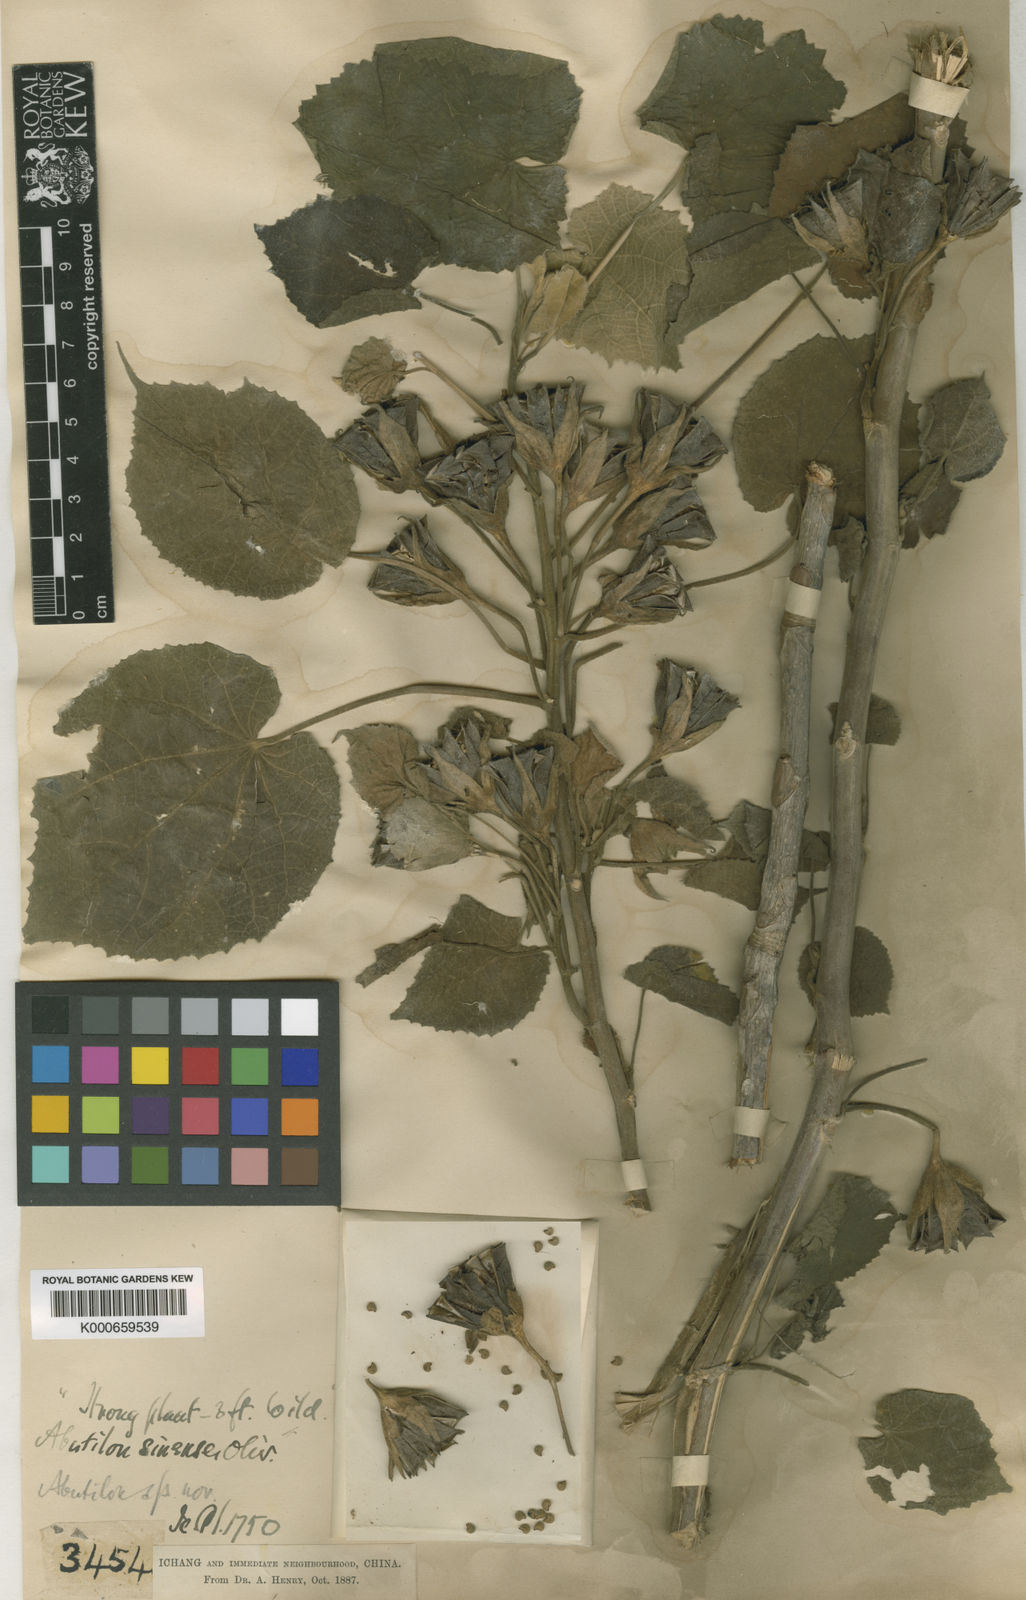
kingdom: Plantae
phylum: Tracheophyta
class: Magnoliopsida
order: Malvales
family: Malvaceae
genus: Abutilon
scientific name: Abutilon sinense
